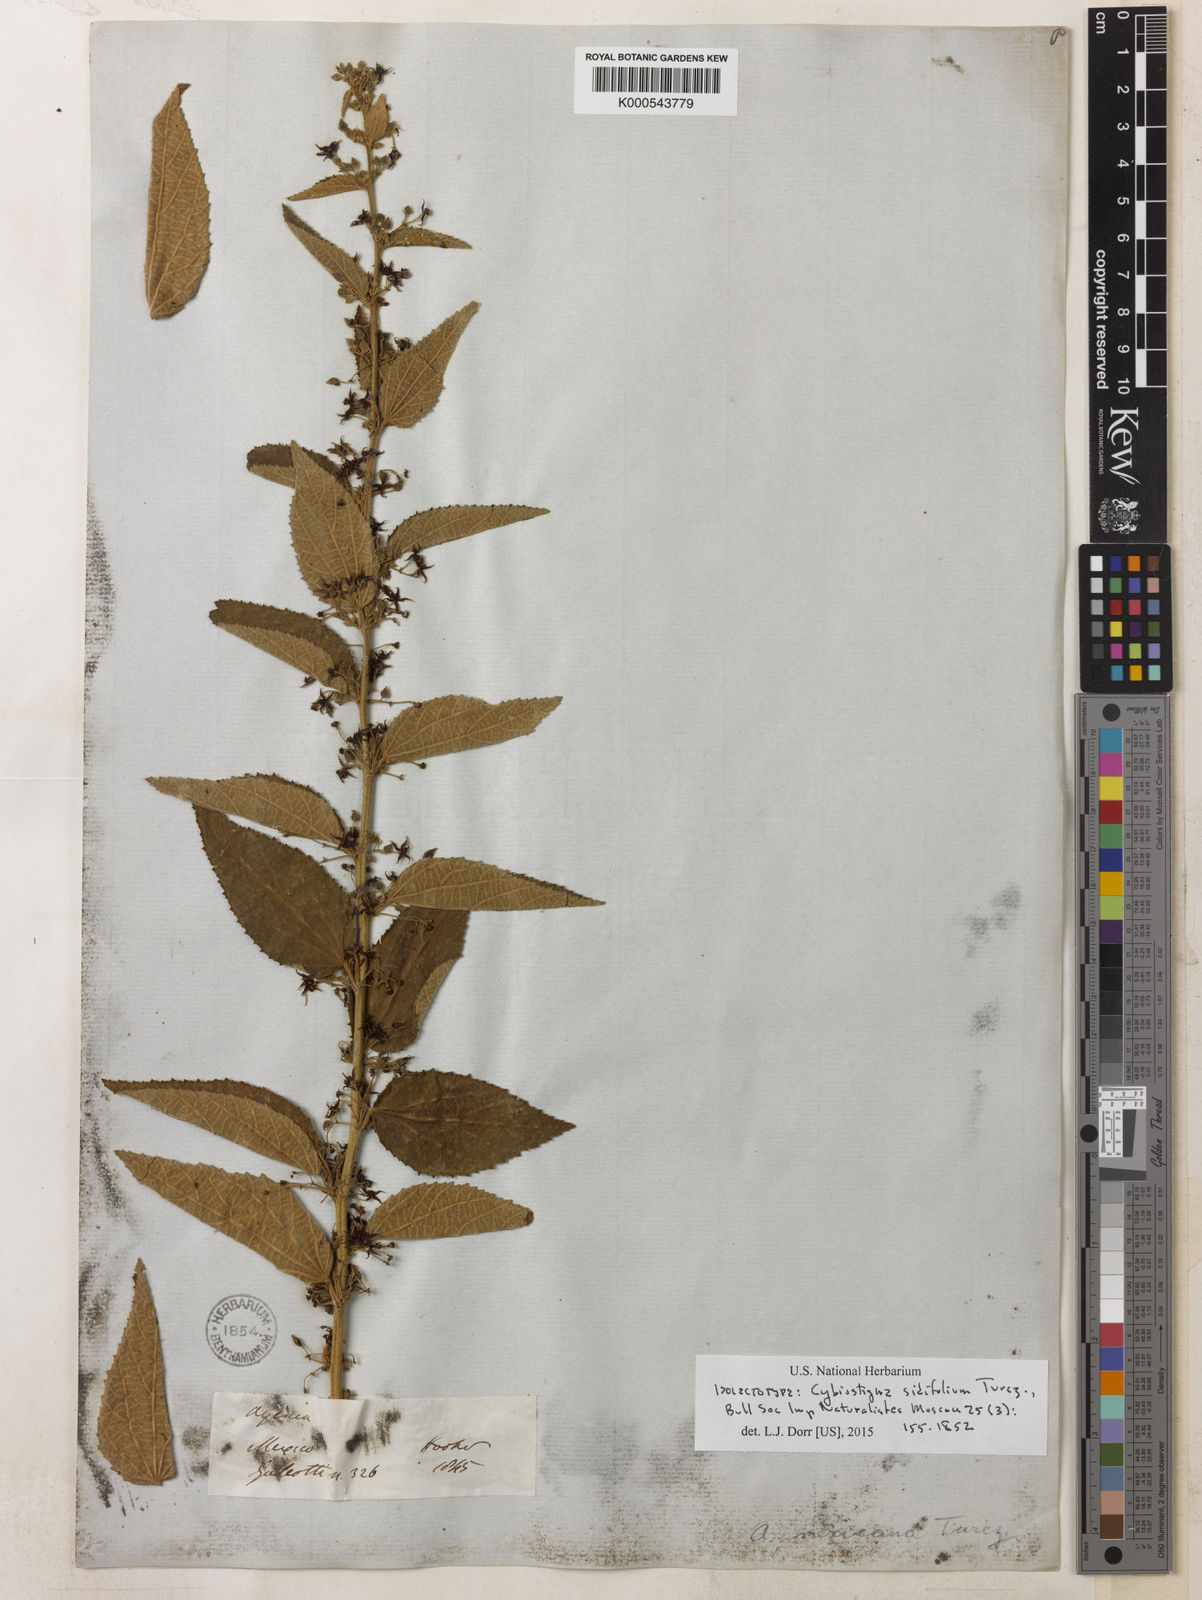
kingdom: Plantae
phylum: Tracheophyta
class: Magnoliopsida
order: Malvales
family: Malvaceae
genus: Ayenia
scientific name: Ayenia sidifolia
